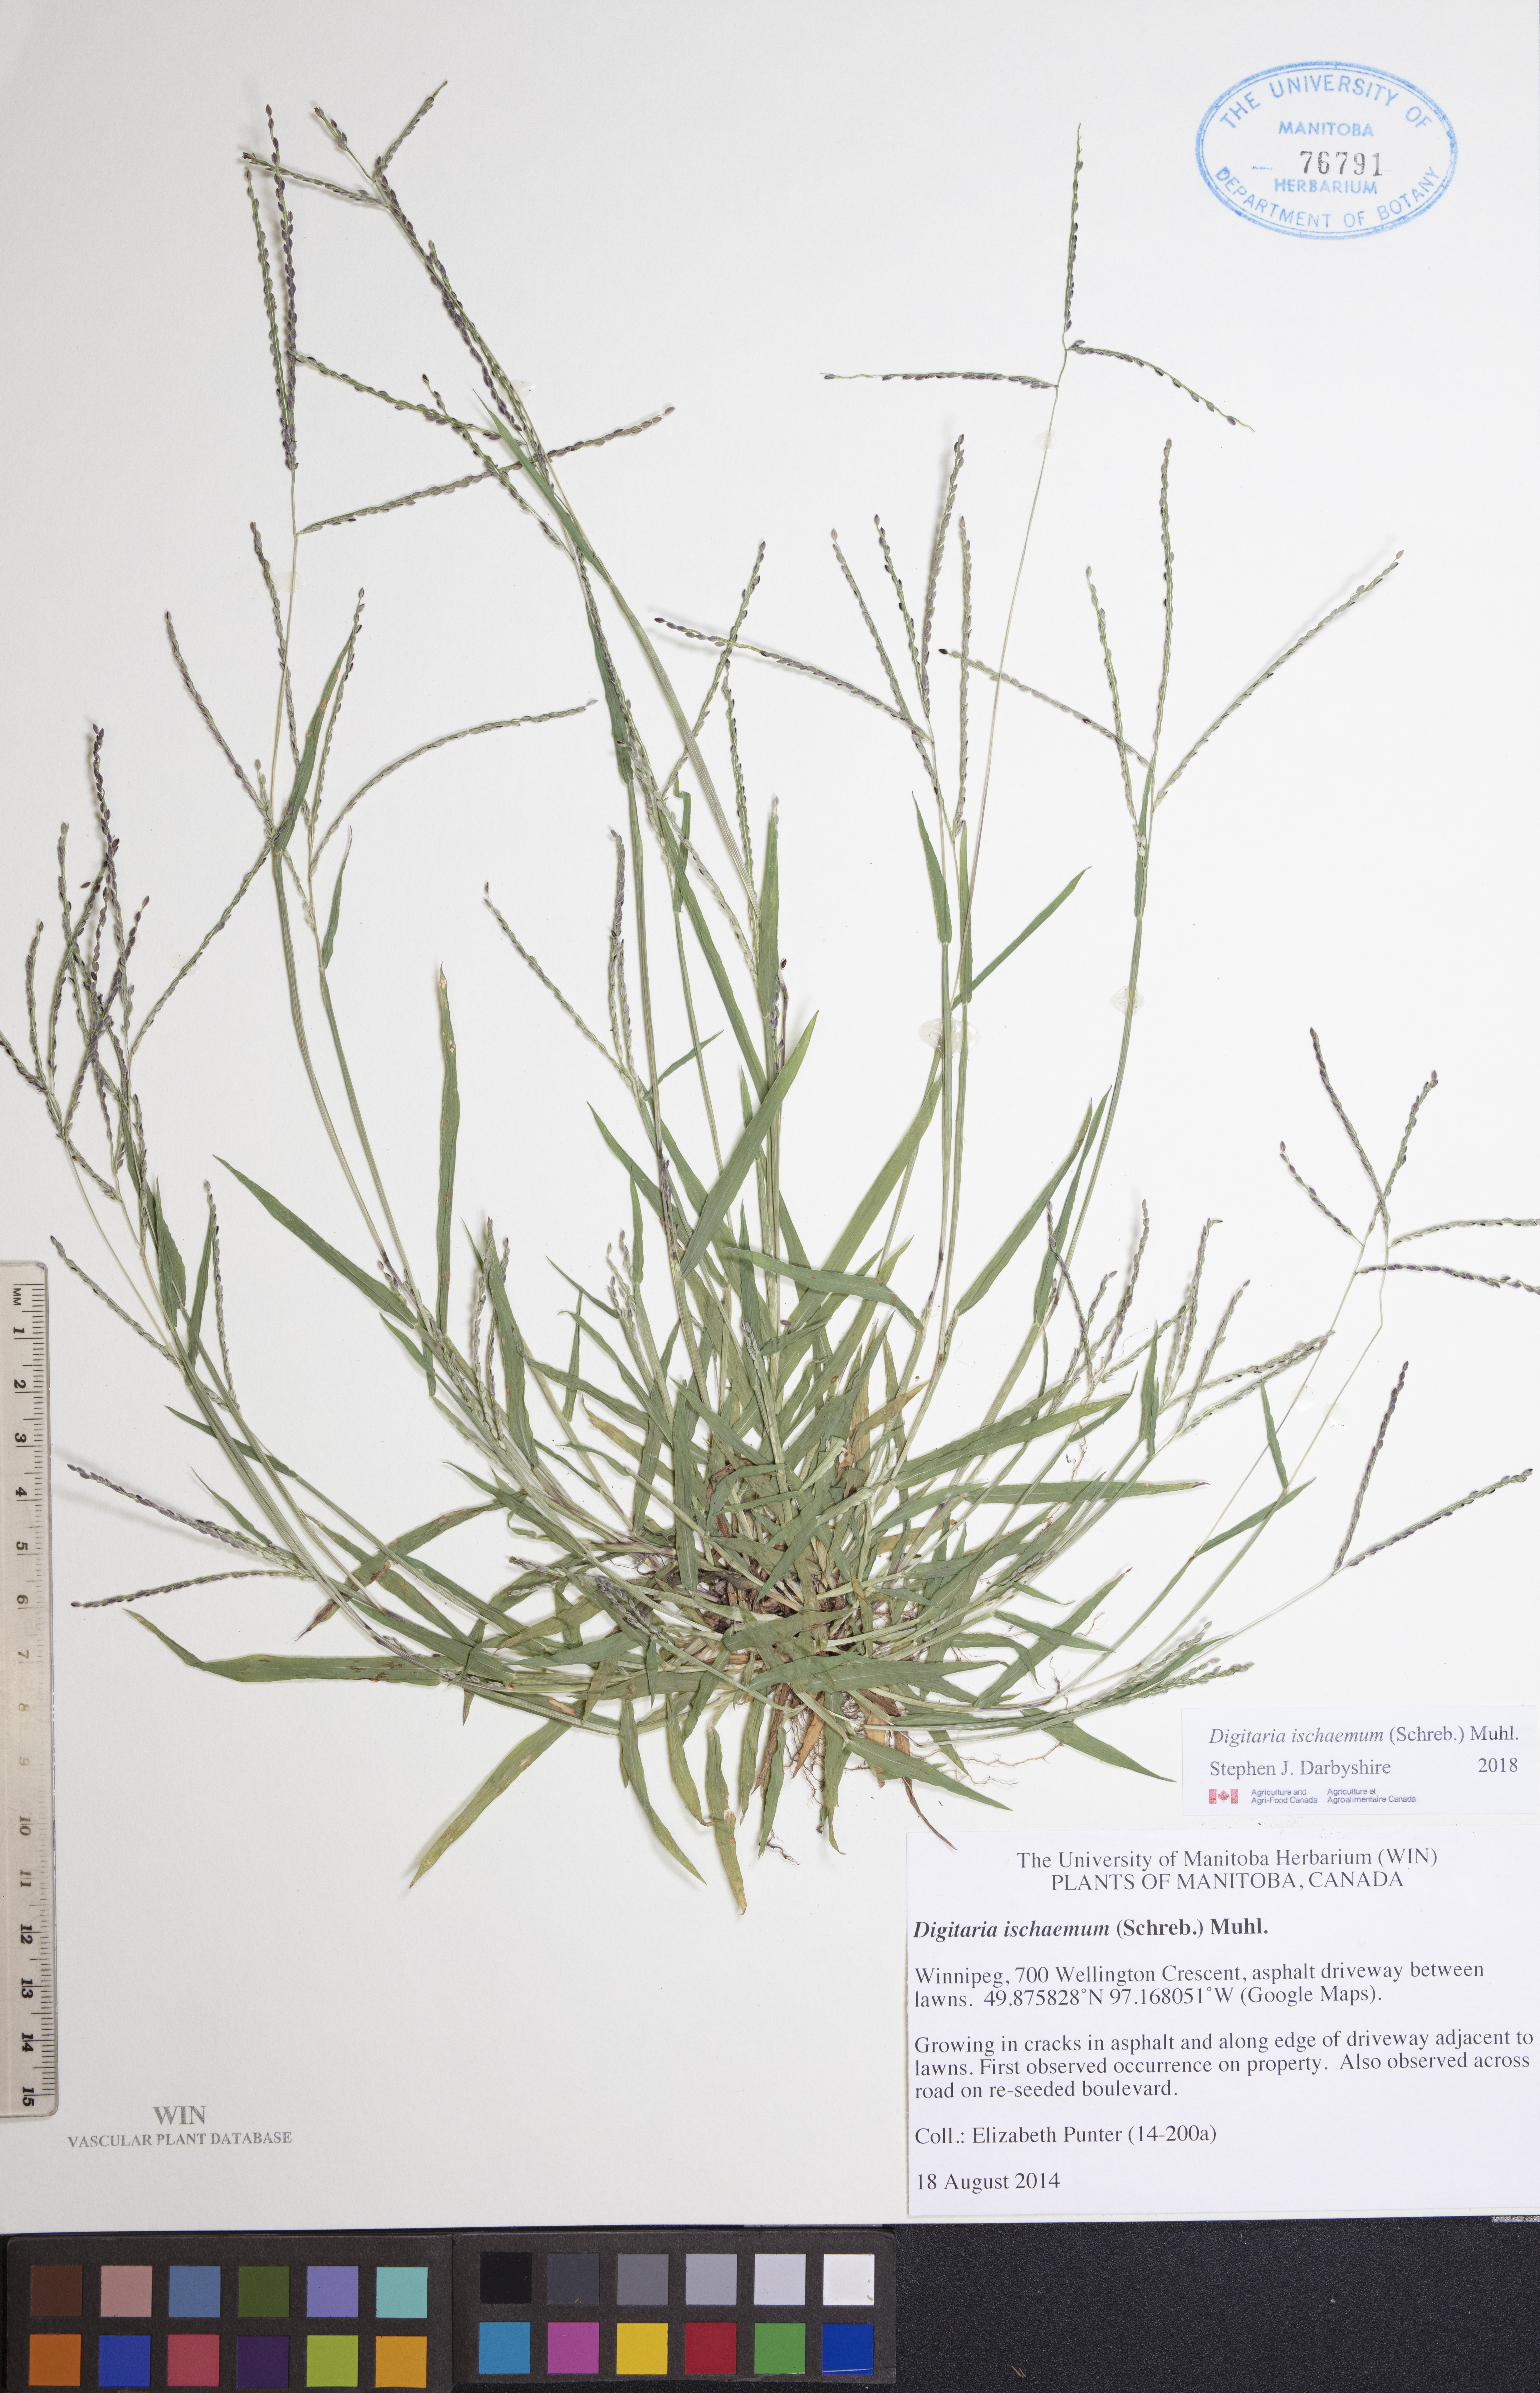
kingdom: Plantae
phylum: Tracheophyta
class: Magnoliopsida
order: Dipsacales
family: Caprifoliaceae
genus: Lonicera
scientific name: Lonicera dioica
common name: Limber honeysuckle
